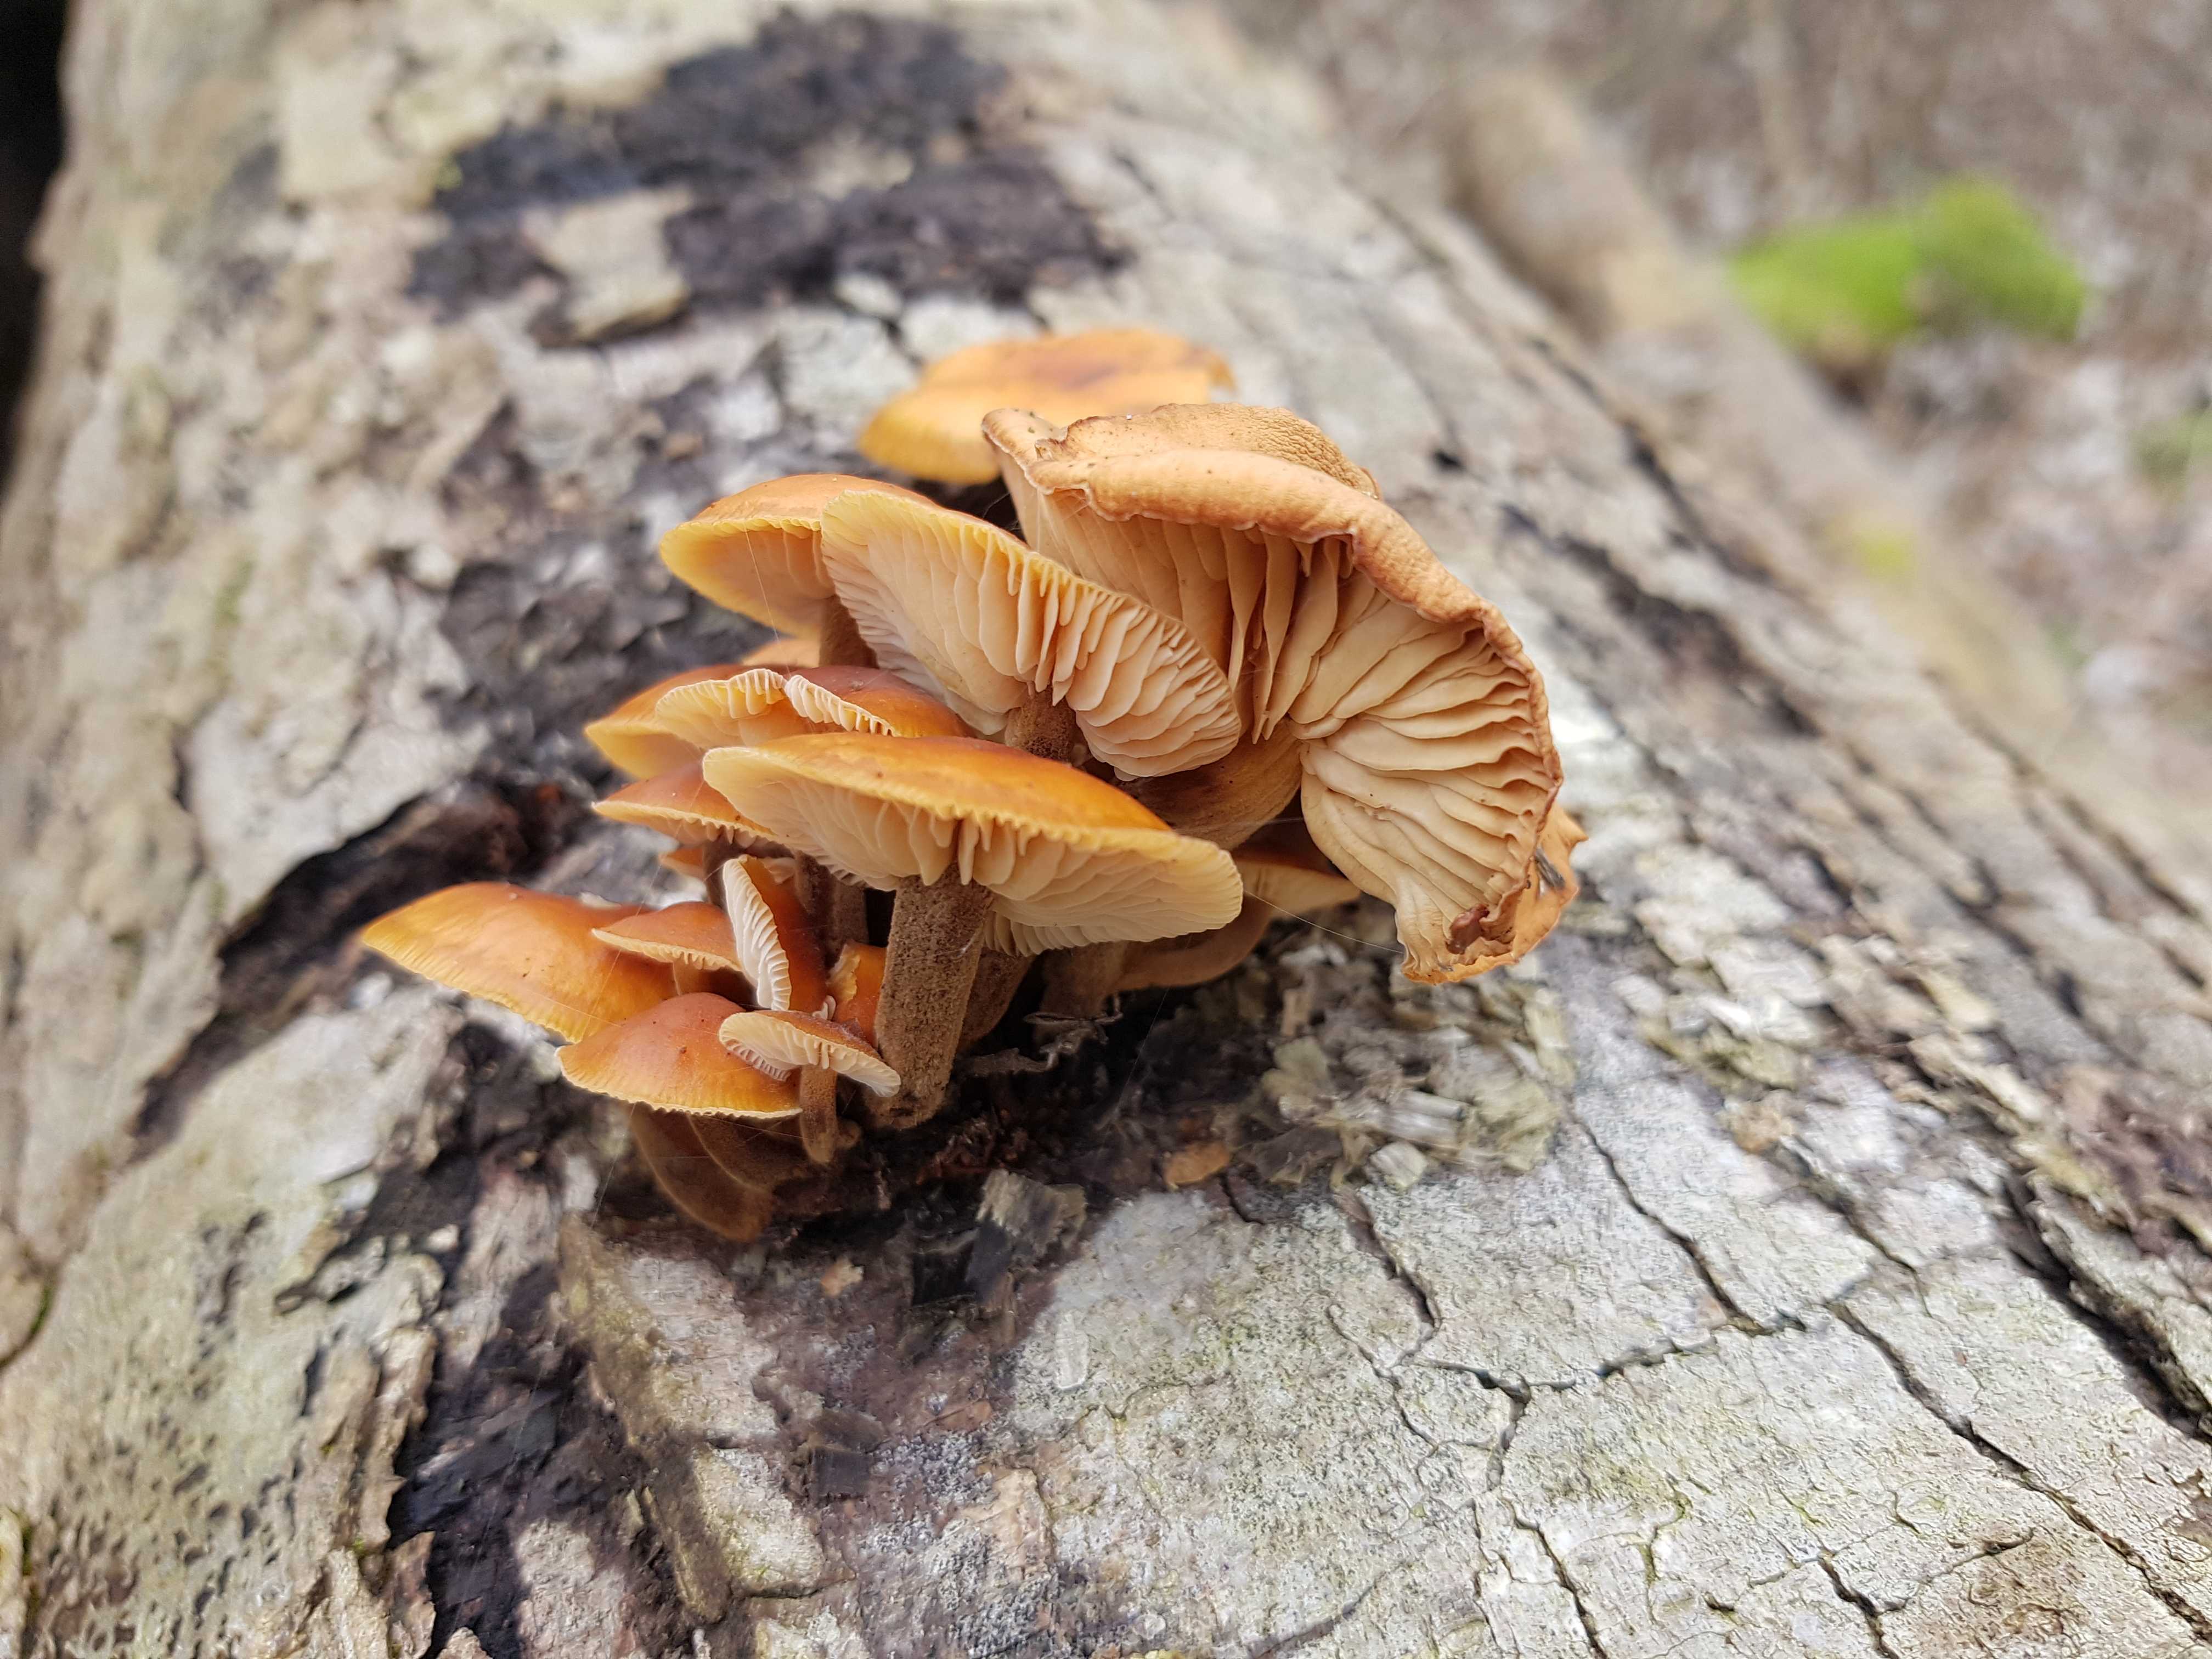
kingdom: Fungi
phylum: Basidiomycota
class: Agaricomycetes
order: Agaricales
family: Physalacriaceae
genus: Flammulina
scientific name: Flammulina velutipes
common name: gul fløjlsfod
